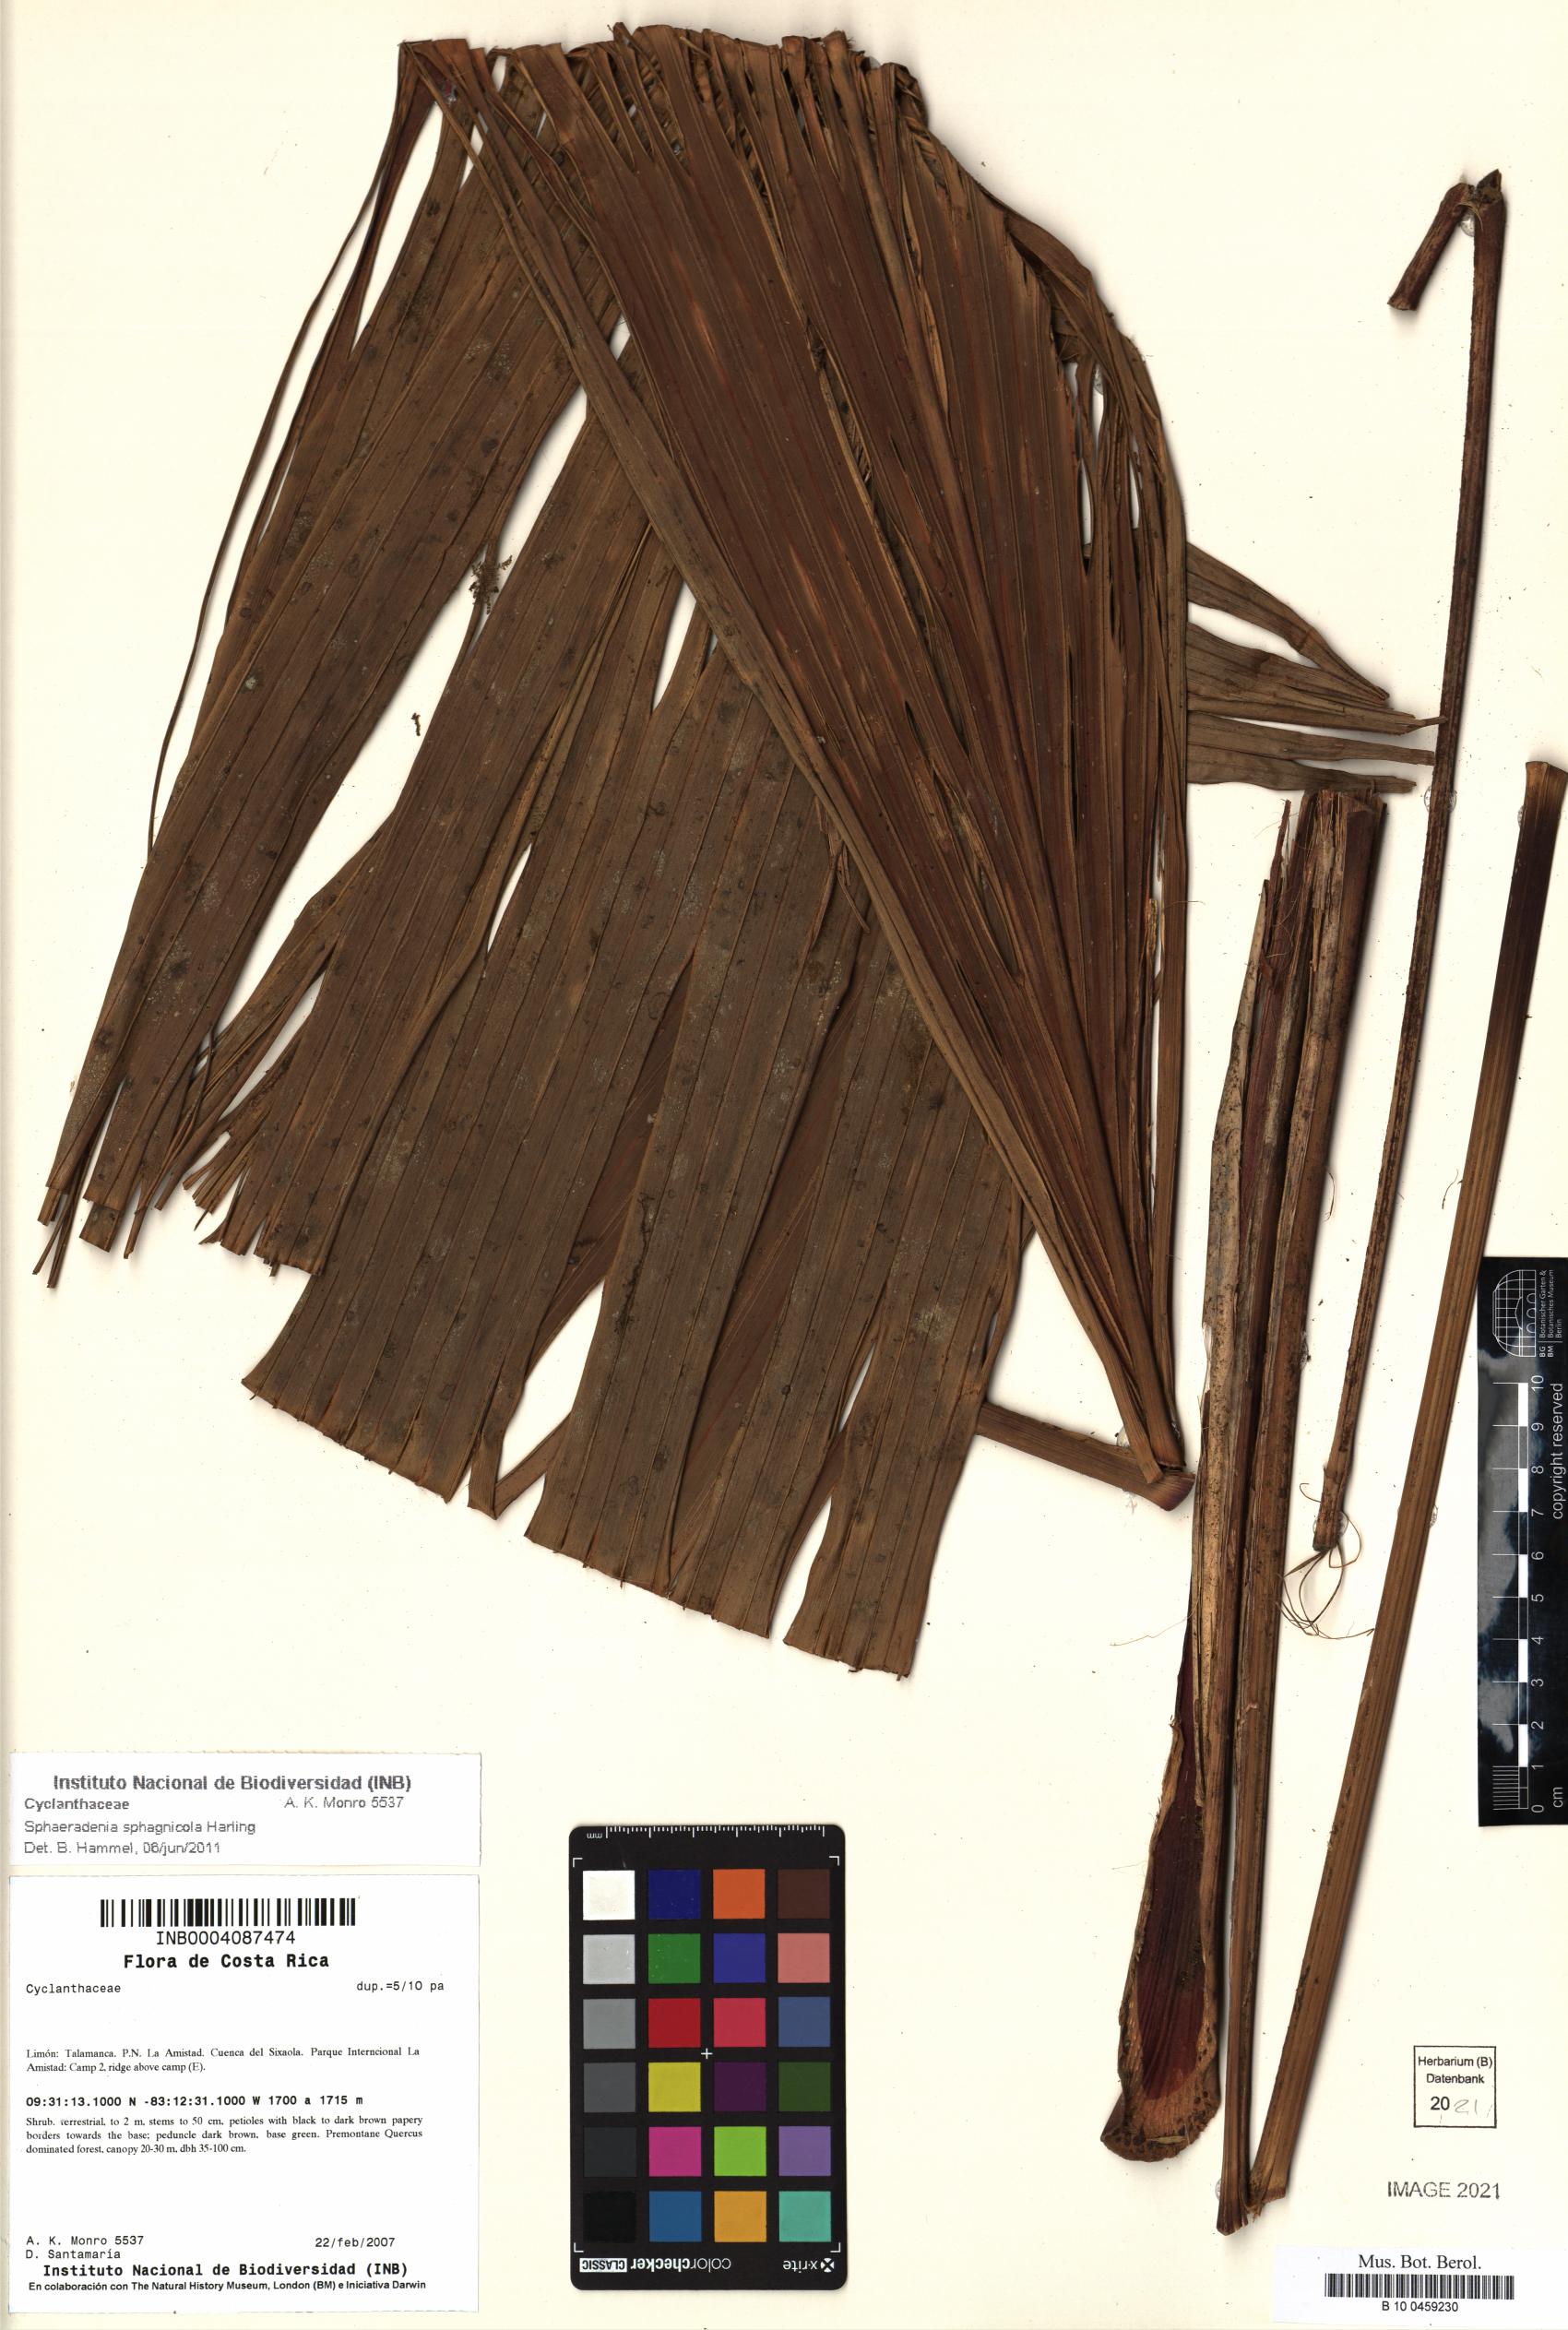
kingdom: Plantae
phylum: Tracheophyta
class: Liliopsida
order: Pandanales
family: Cyclanthaceae
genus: Sphaeradenia
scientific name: Sphaeradenia sphagnicola
